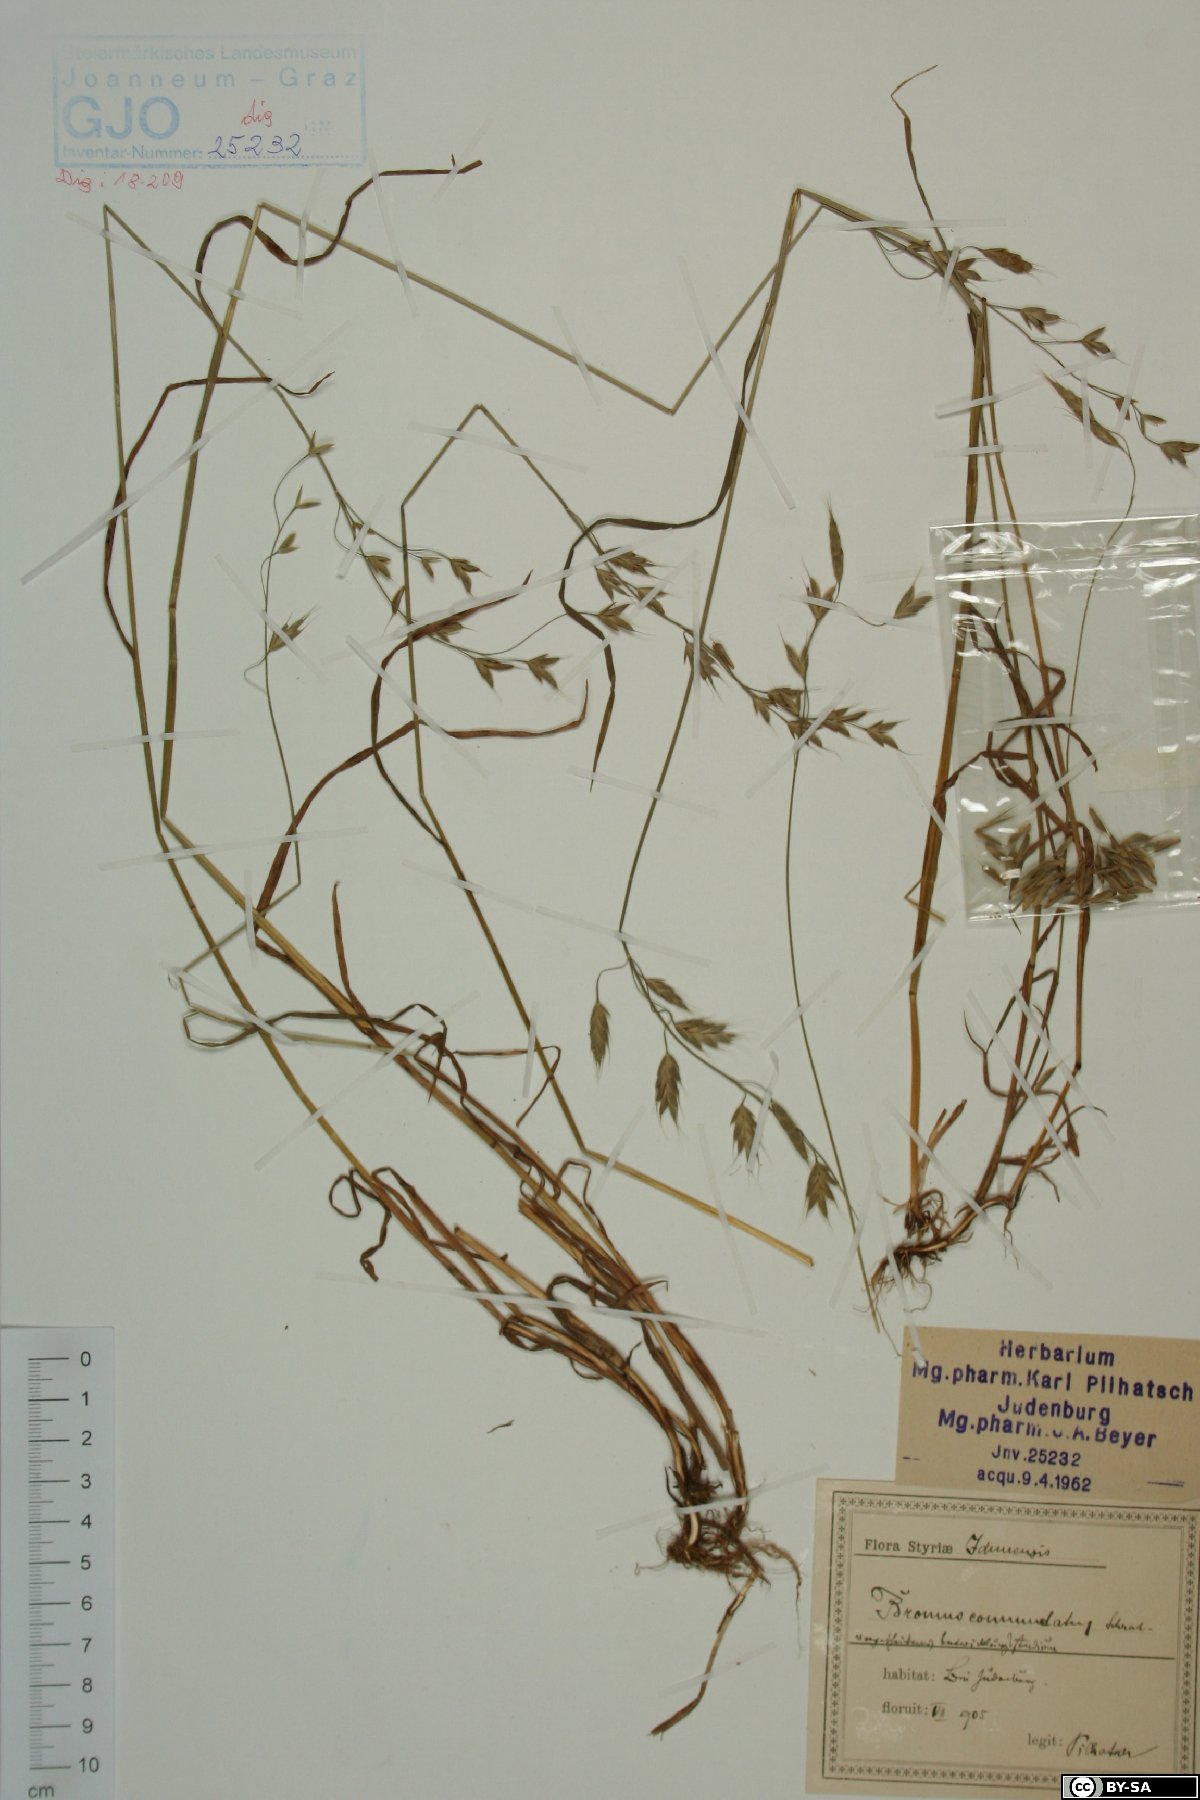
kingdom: Plantae
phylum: Tracheophyta
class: Liliopsida
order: Poales
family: Poaceae
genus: Bromus
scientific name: Bromus commutatus
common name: Meadow brome
